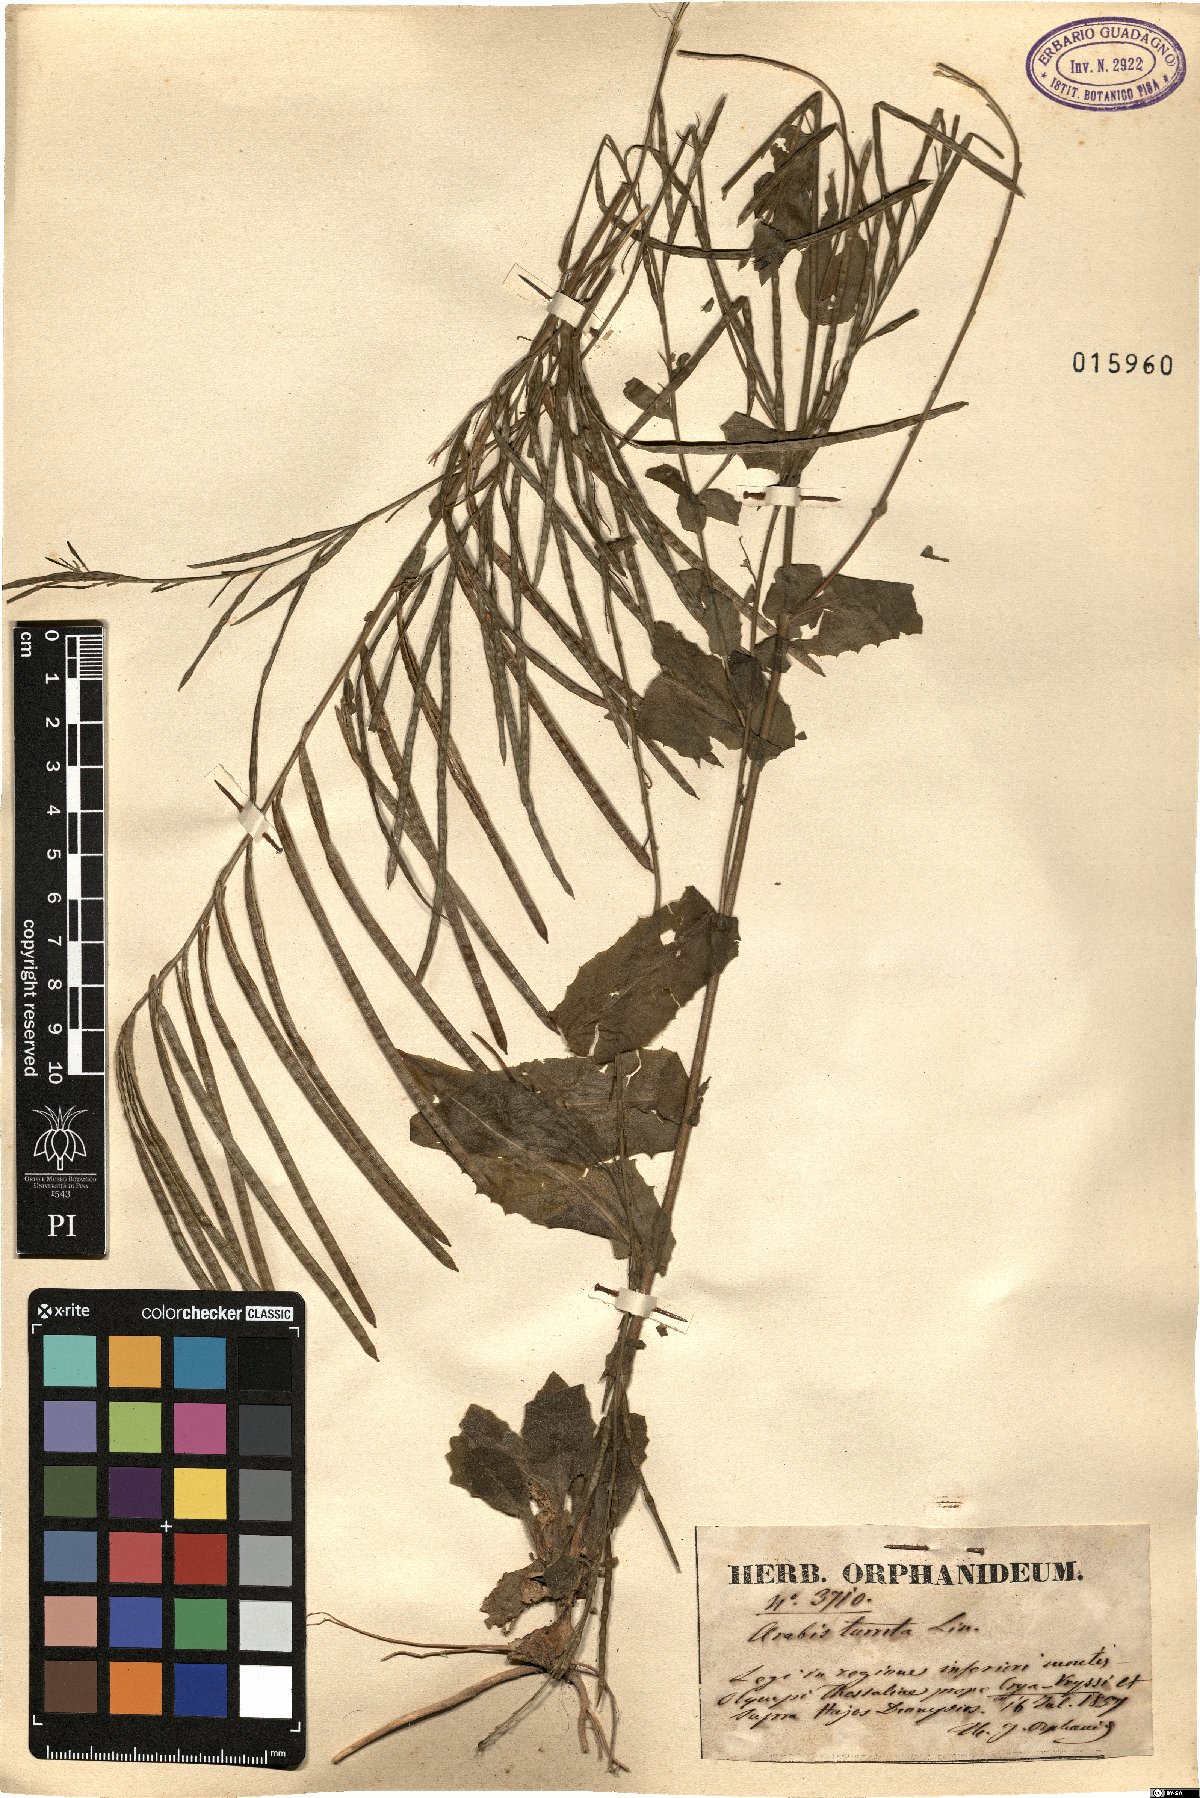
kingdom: Plantae
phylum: Tracheophyta
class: Magnoliopsida
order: Brassicales
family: Brassicaceae
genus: Pseudoturritis
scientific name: Pseudoturritis turrita
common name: Tower cress
